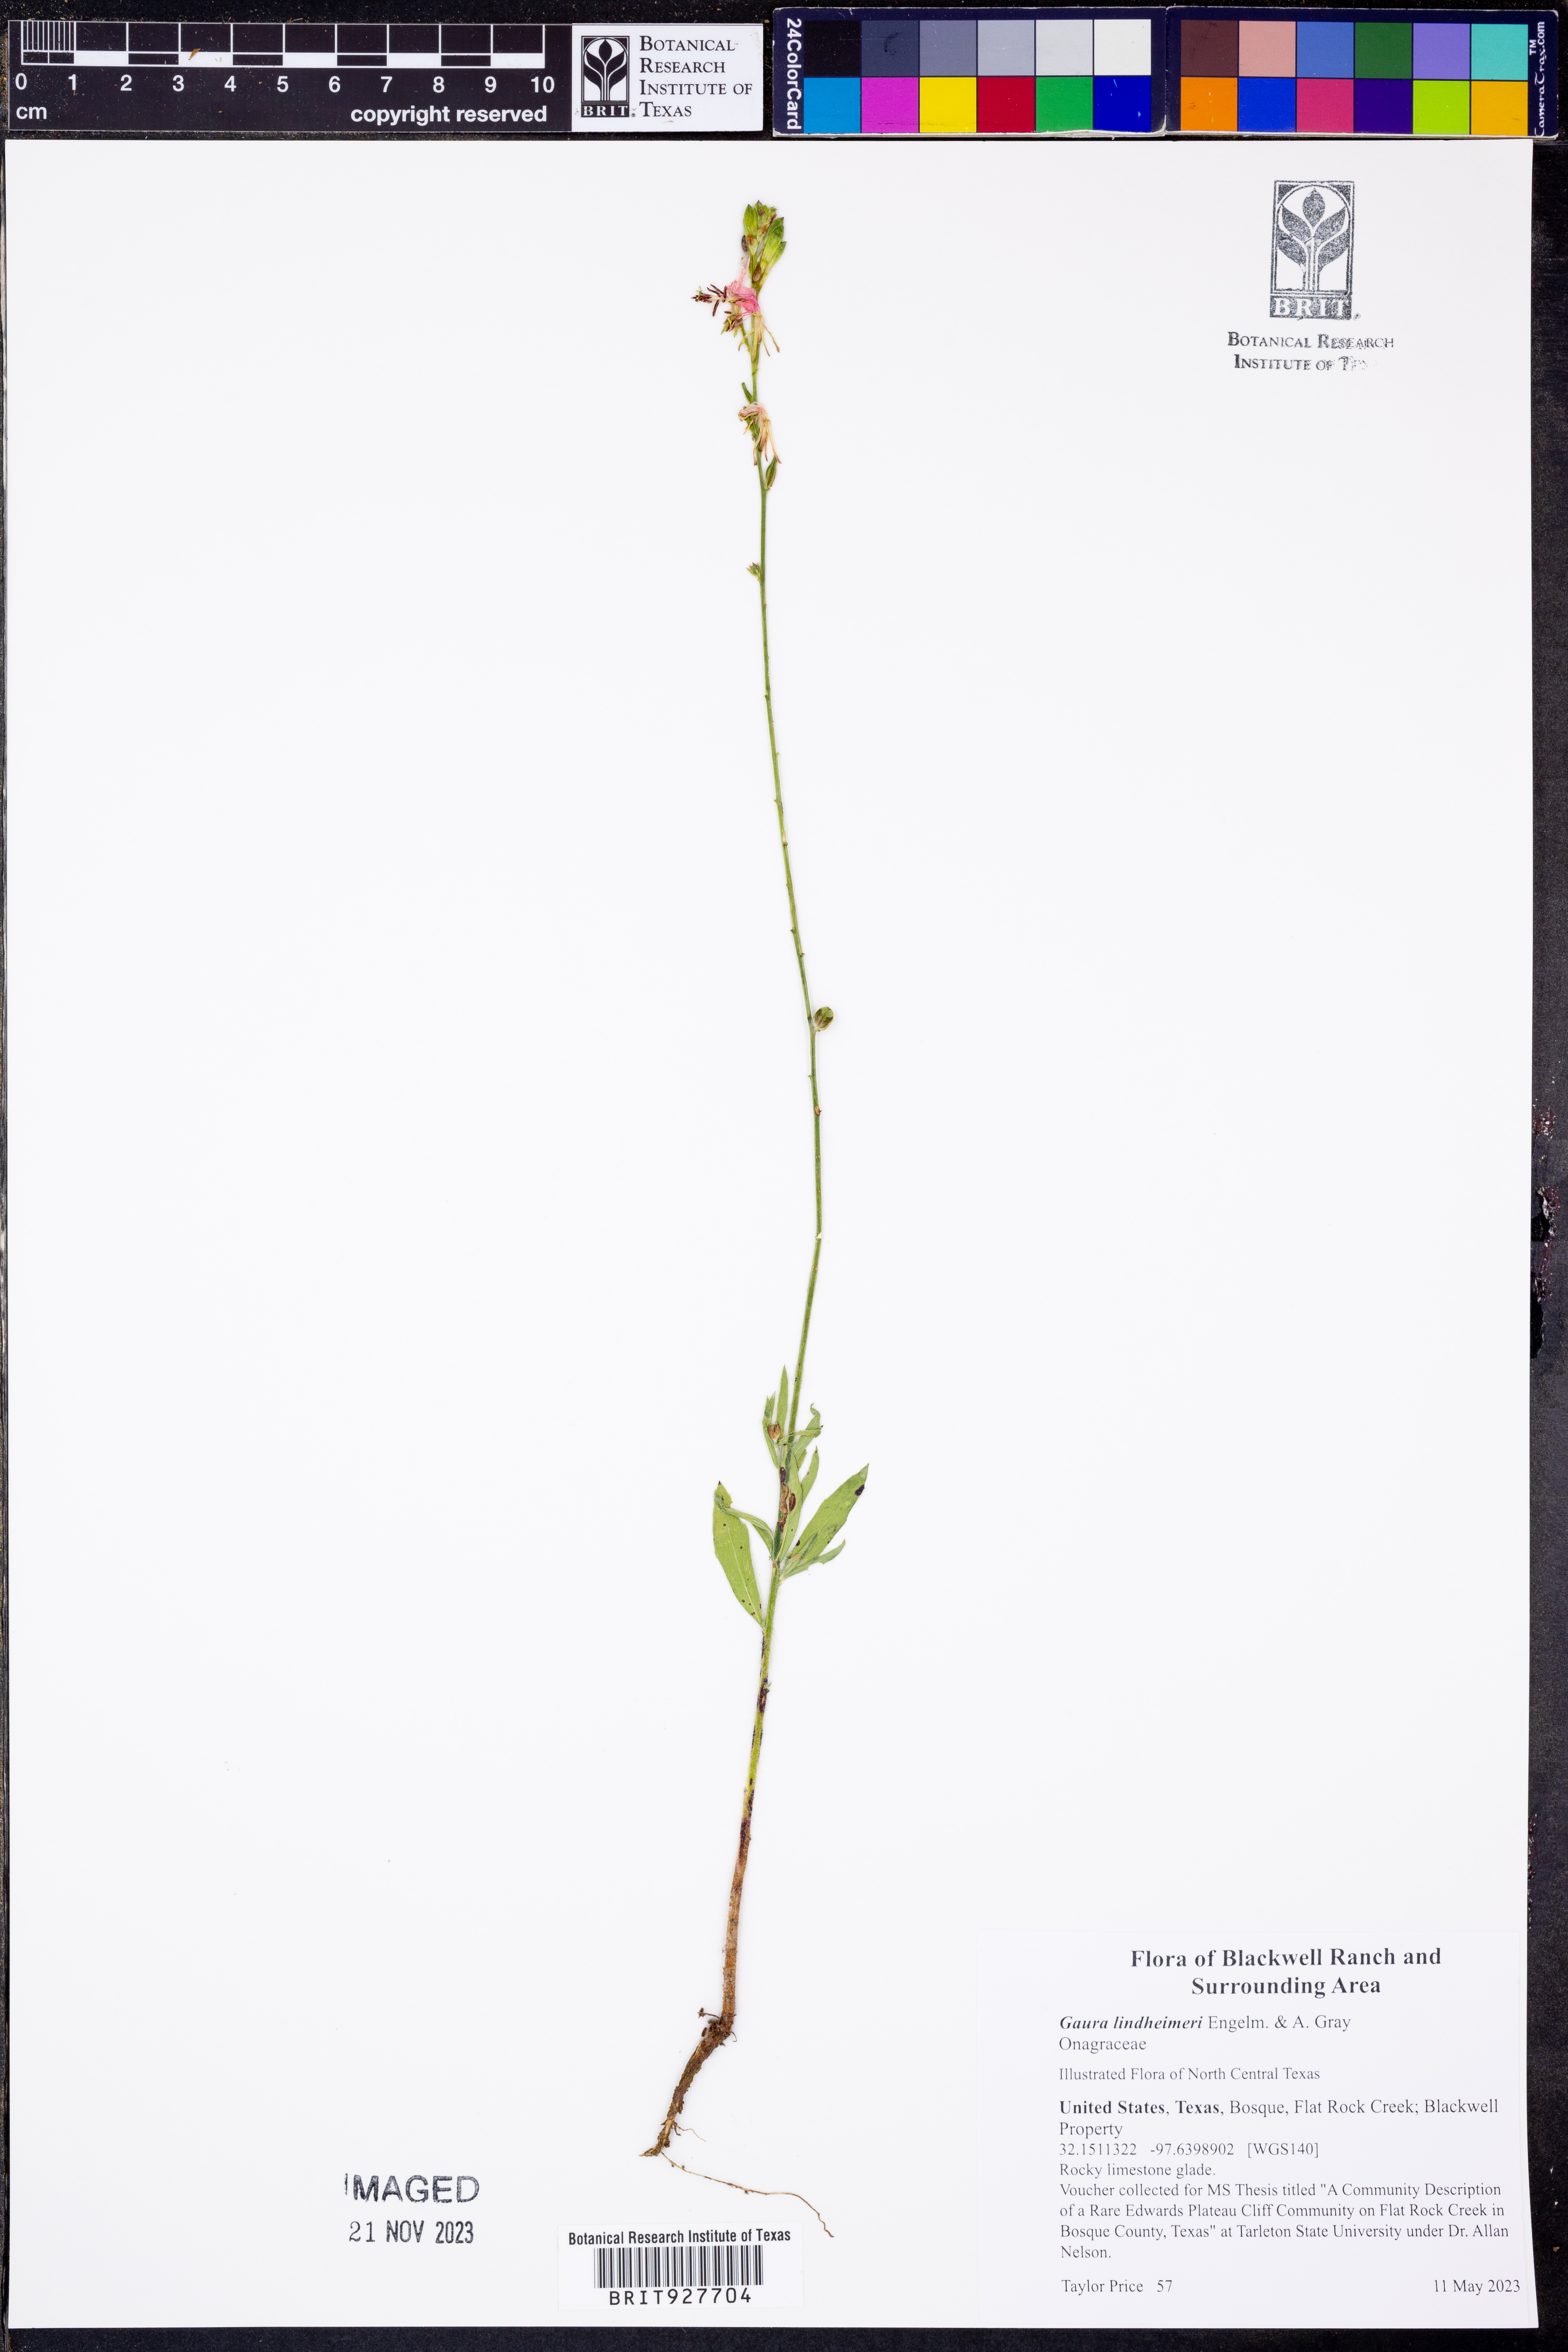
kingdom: Plantae
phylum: Tracheophyta
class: Magnoliopsida
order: Myrtales
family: Onagraceae
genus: Oenothera
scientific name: Oenothera lindheimeri
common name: Lindheimer's beeblossom
